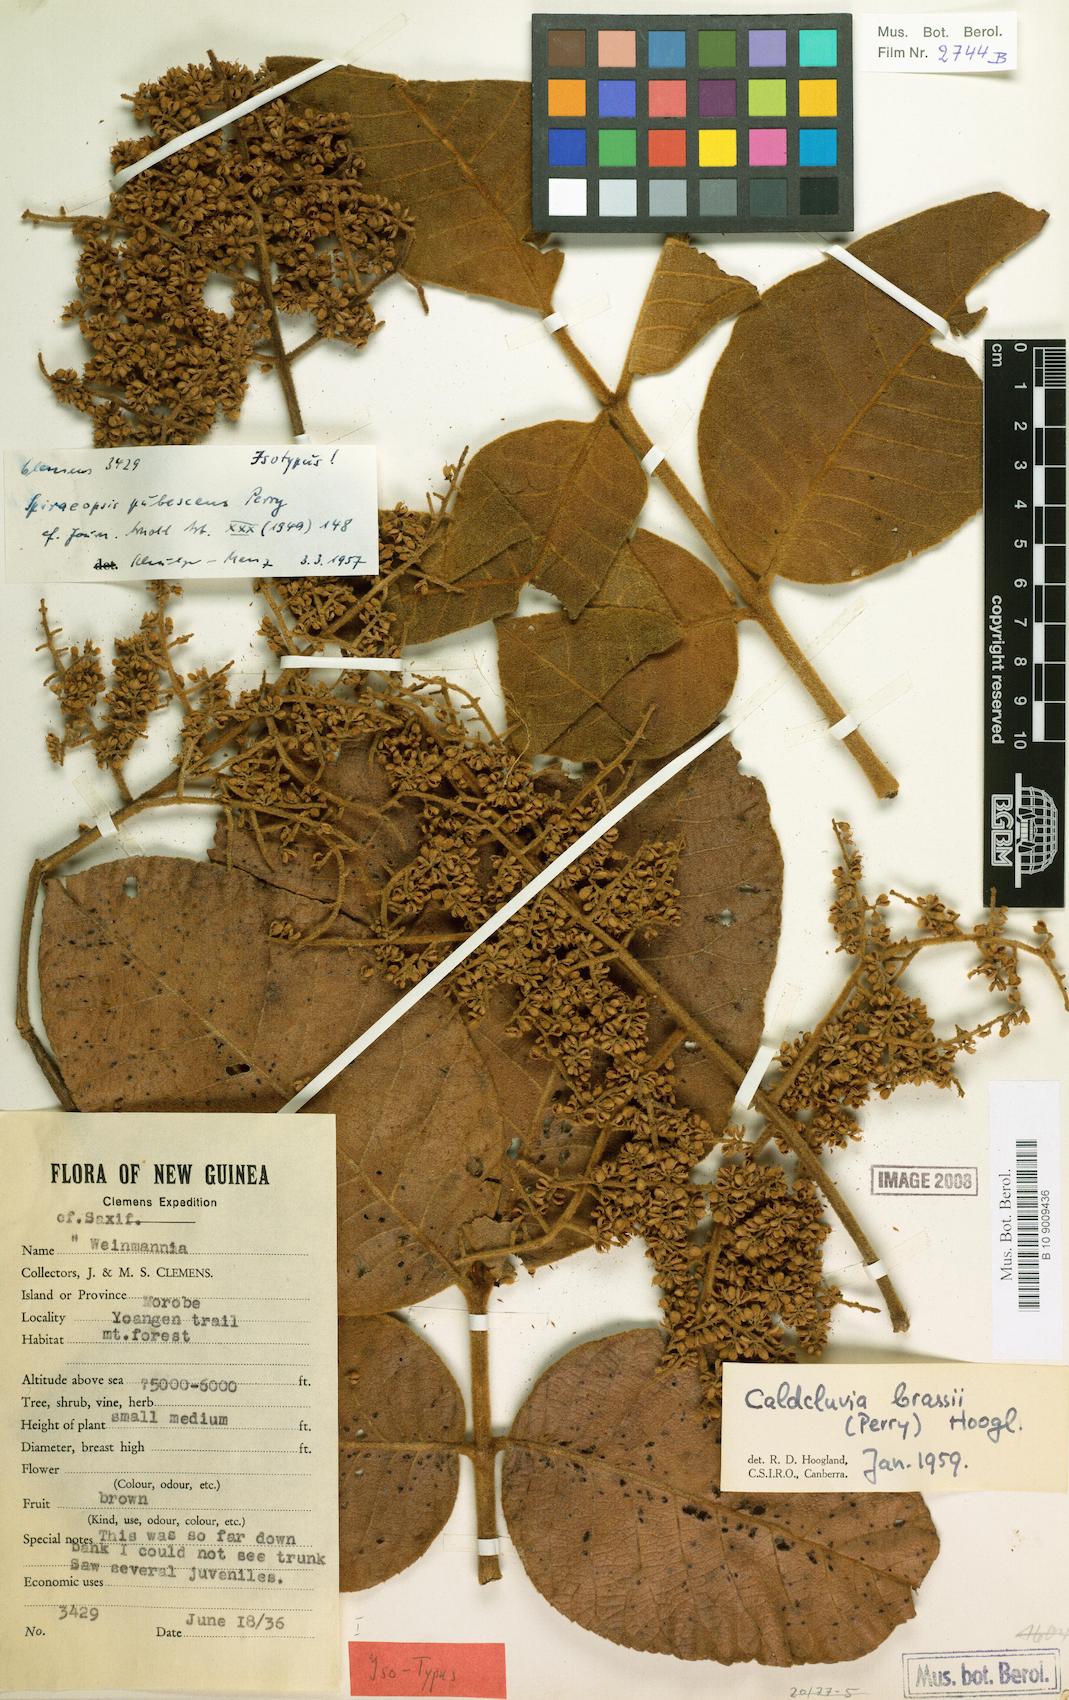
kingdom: Plantae
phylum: Tracheophyta
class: Magnoliopsida
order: Oxalidales
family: Cunoniaceae
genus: Ackama
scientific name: Ackama brassii
